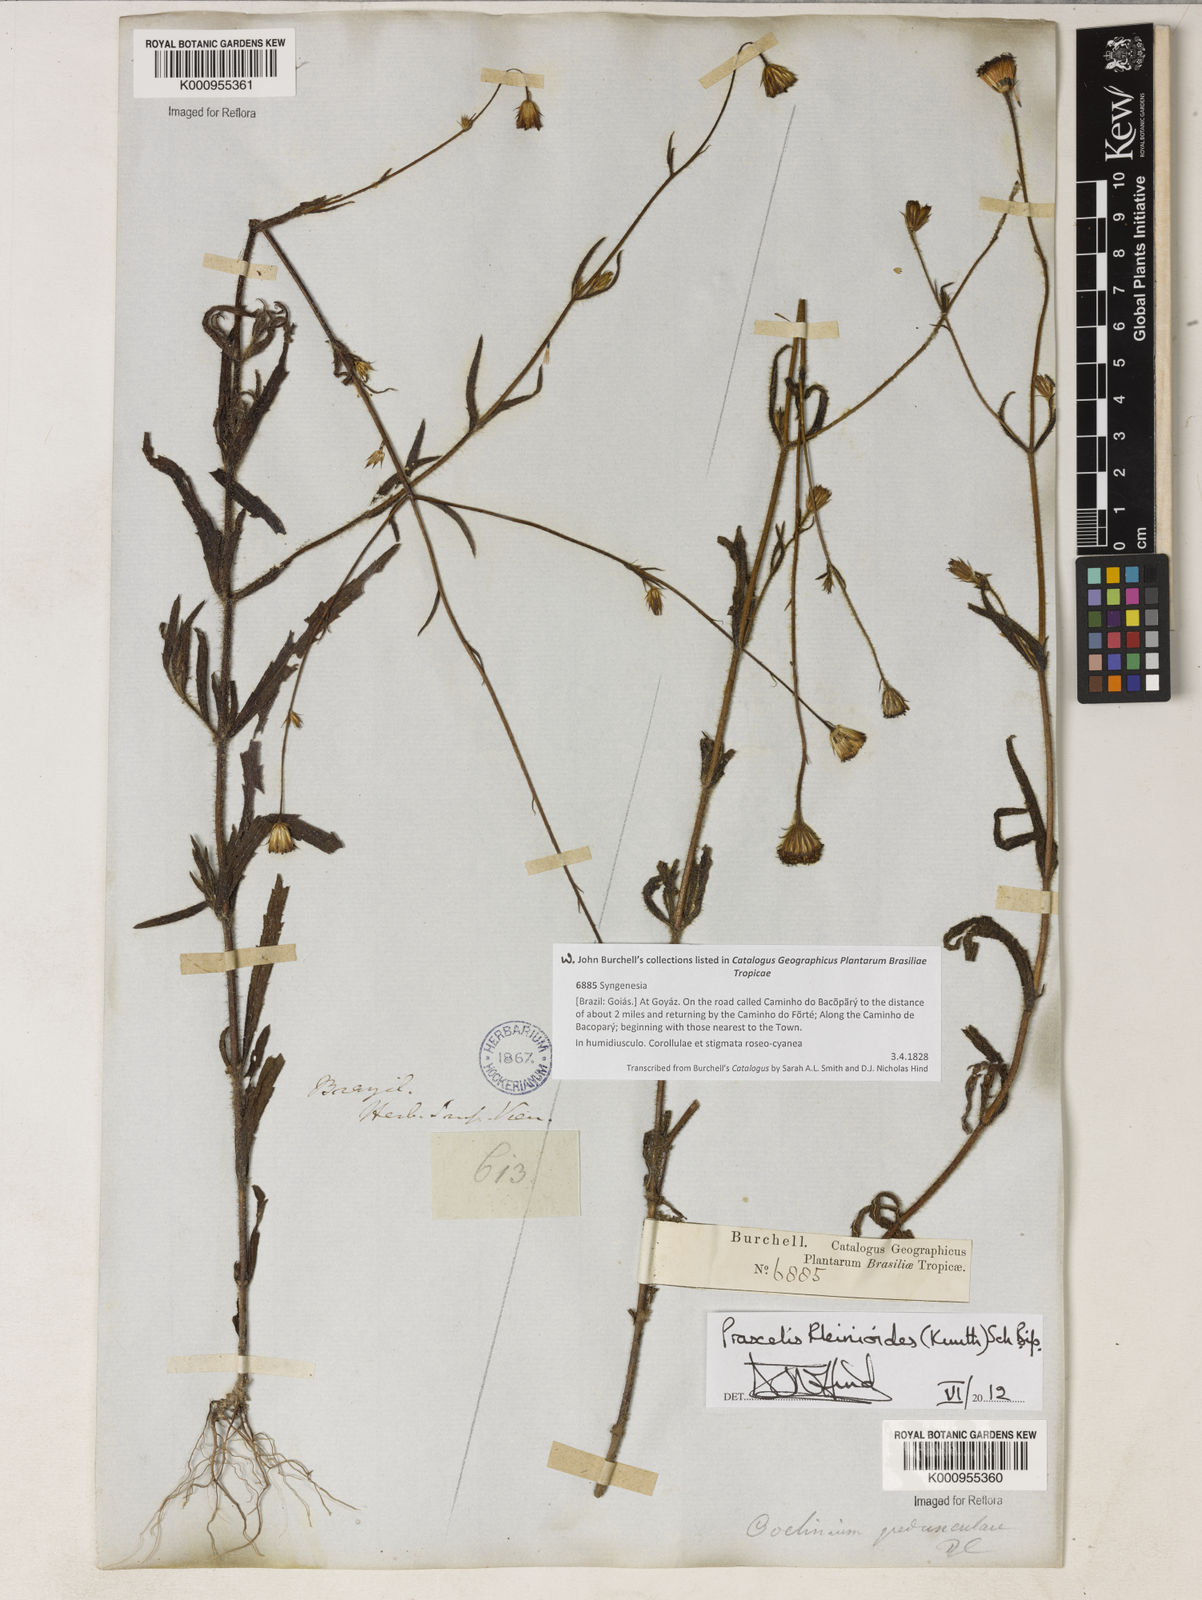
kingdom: Plantae
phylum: Tracheophyta
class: Magnoliopsida
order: Asterales
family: Asteraceae
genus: Praxelis
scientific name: Praxelis kleinioides
